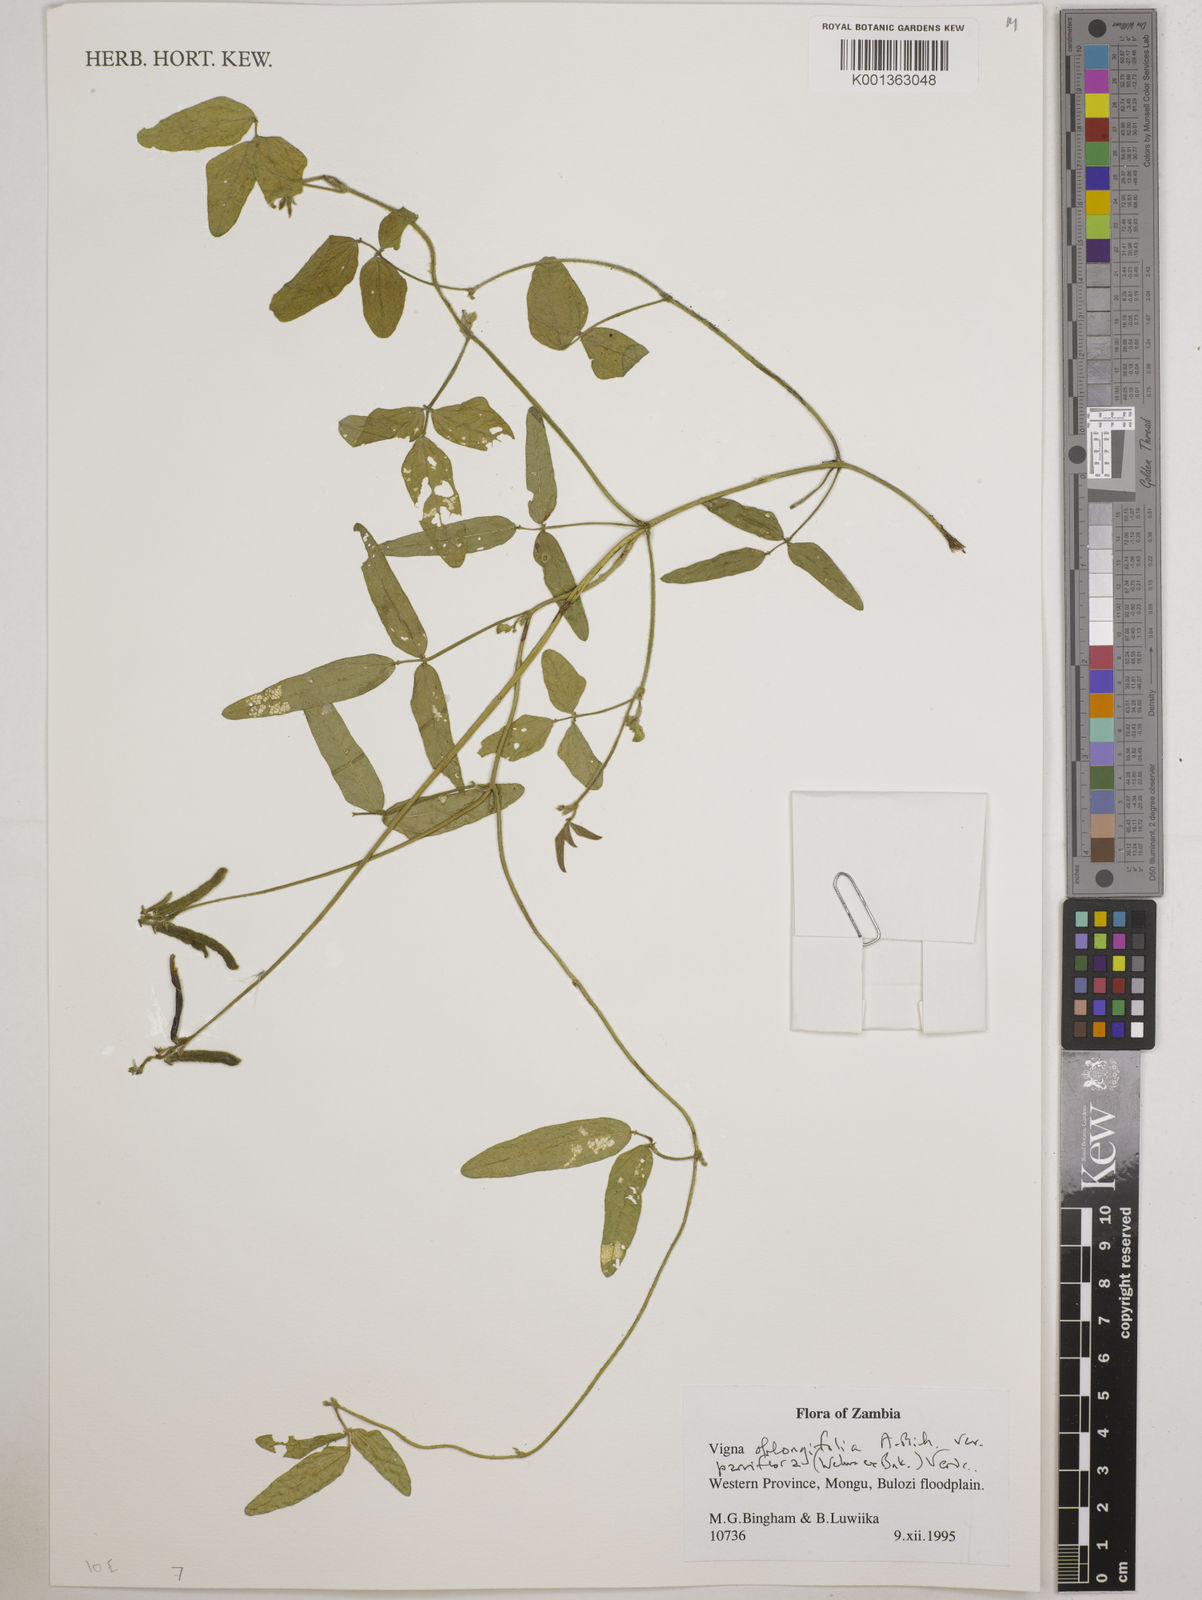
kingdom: Plantae
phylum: Tracheophyta
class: Magnoliopsida
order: Fabales
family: Fabaceae
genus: Vigna
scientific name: Vigna
